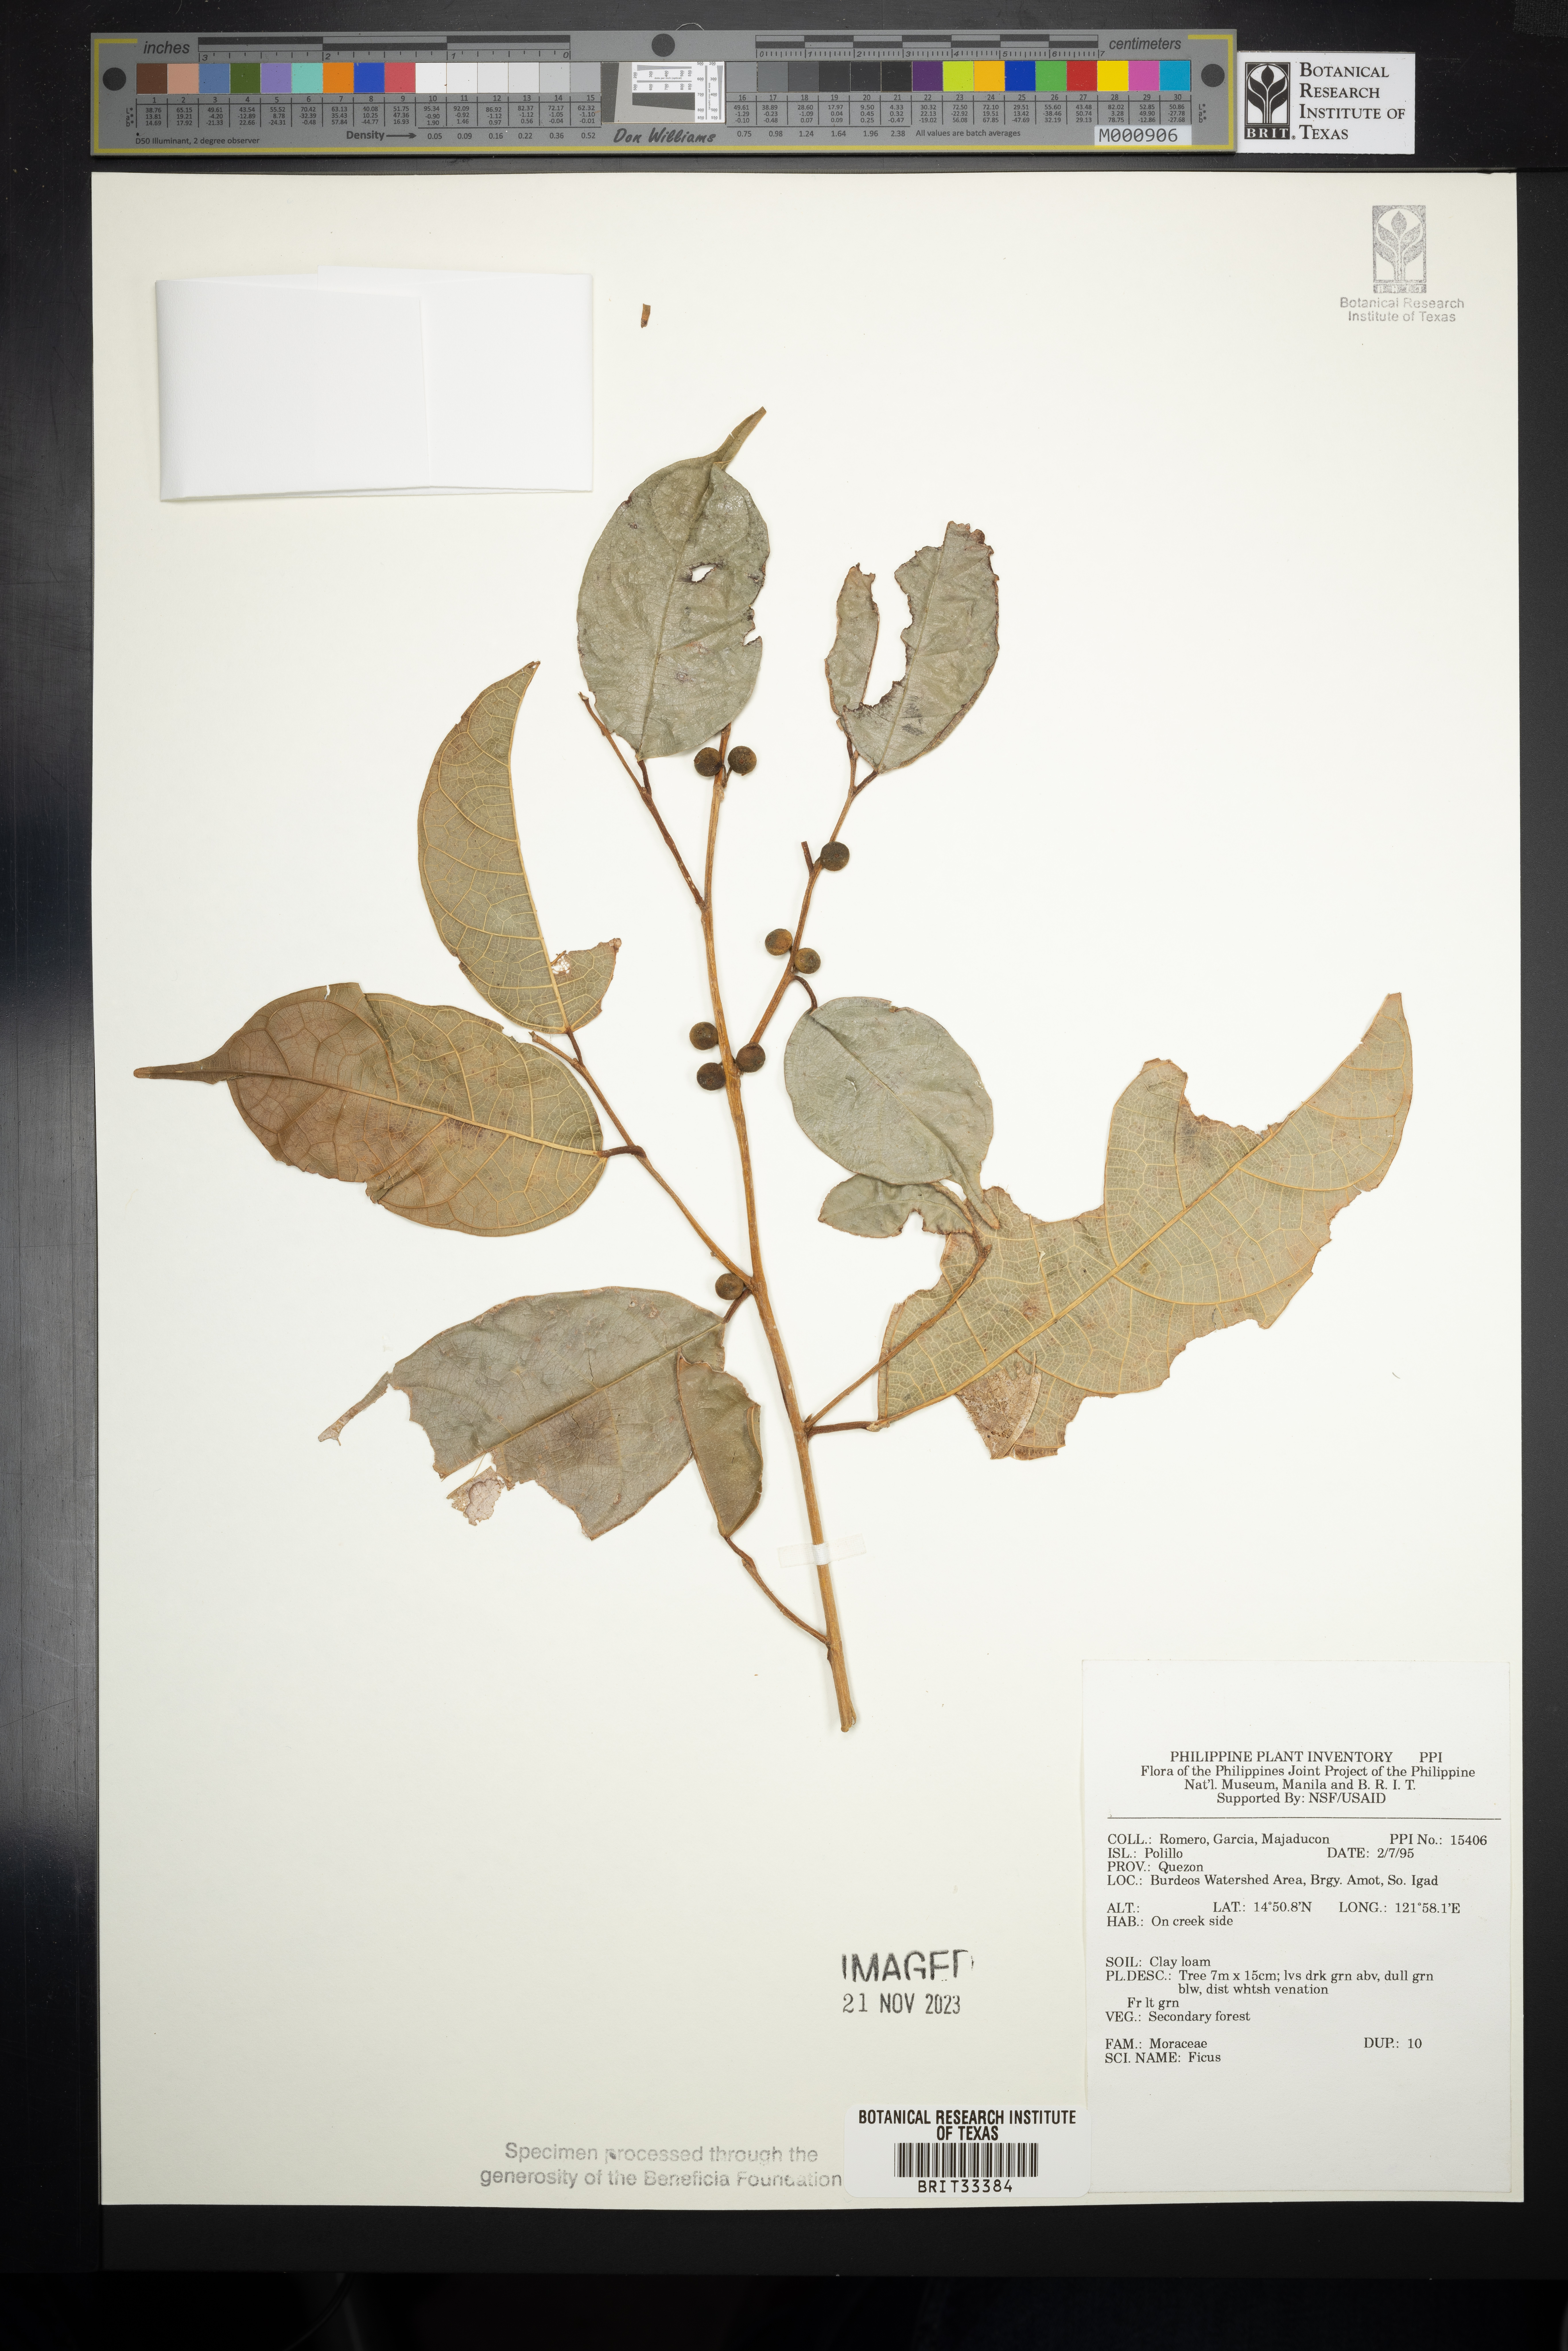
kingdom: Plantae
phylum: Tracheophyta
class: Magnoliopsida
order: Rosales
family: Moraceae
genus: Ficus
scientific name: Ficus
